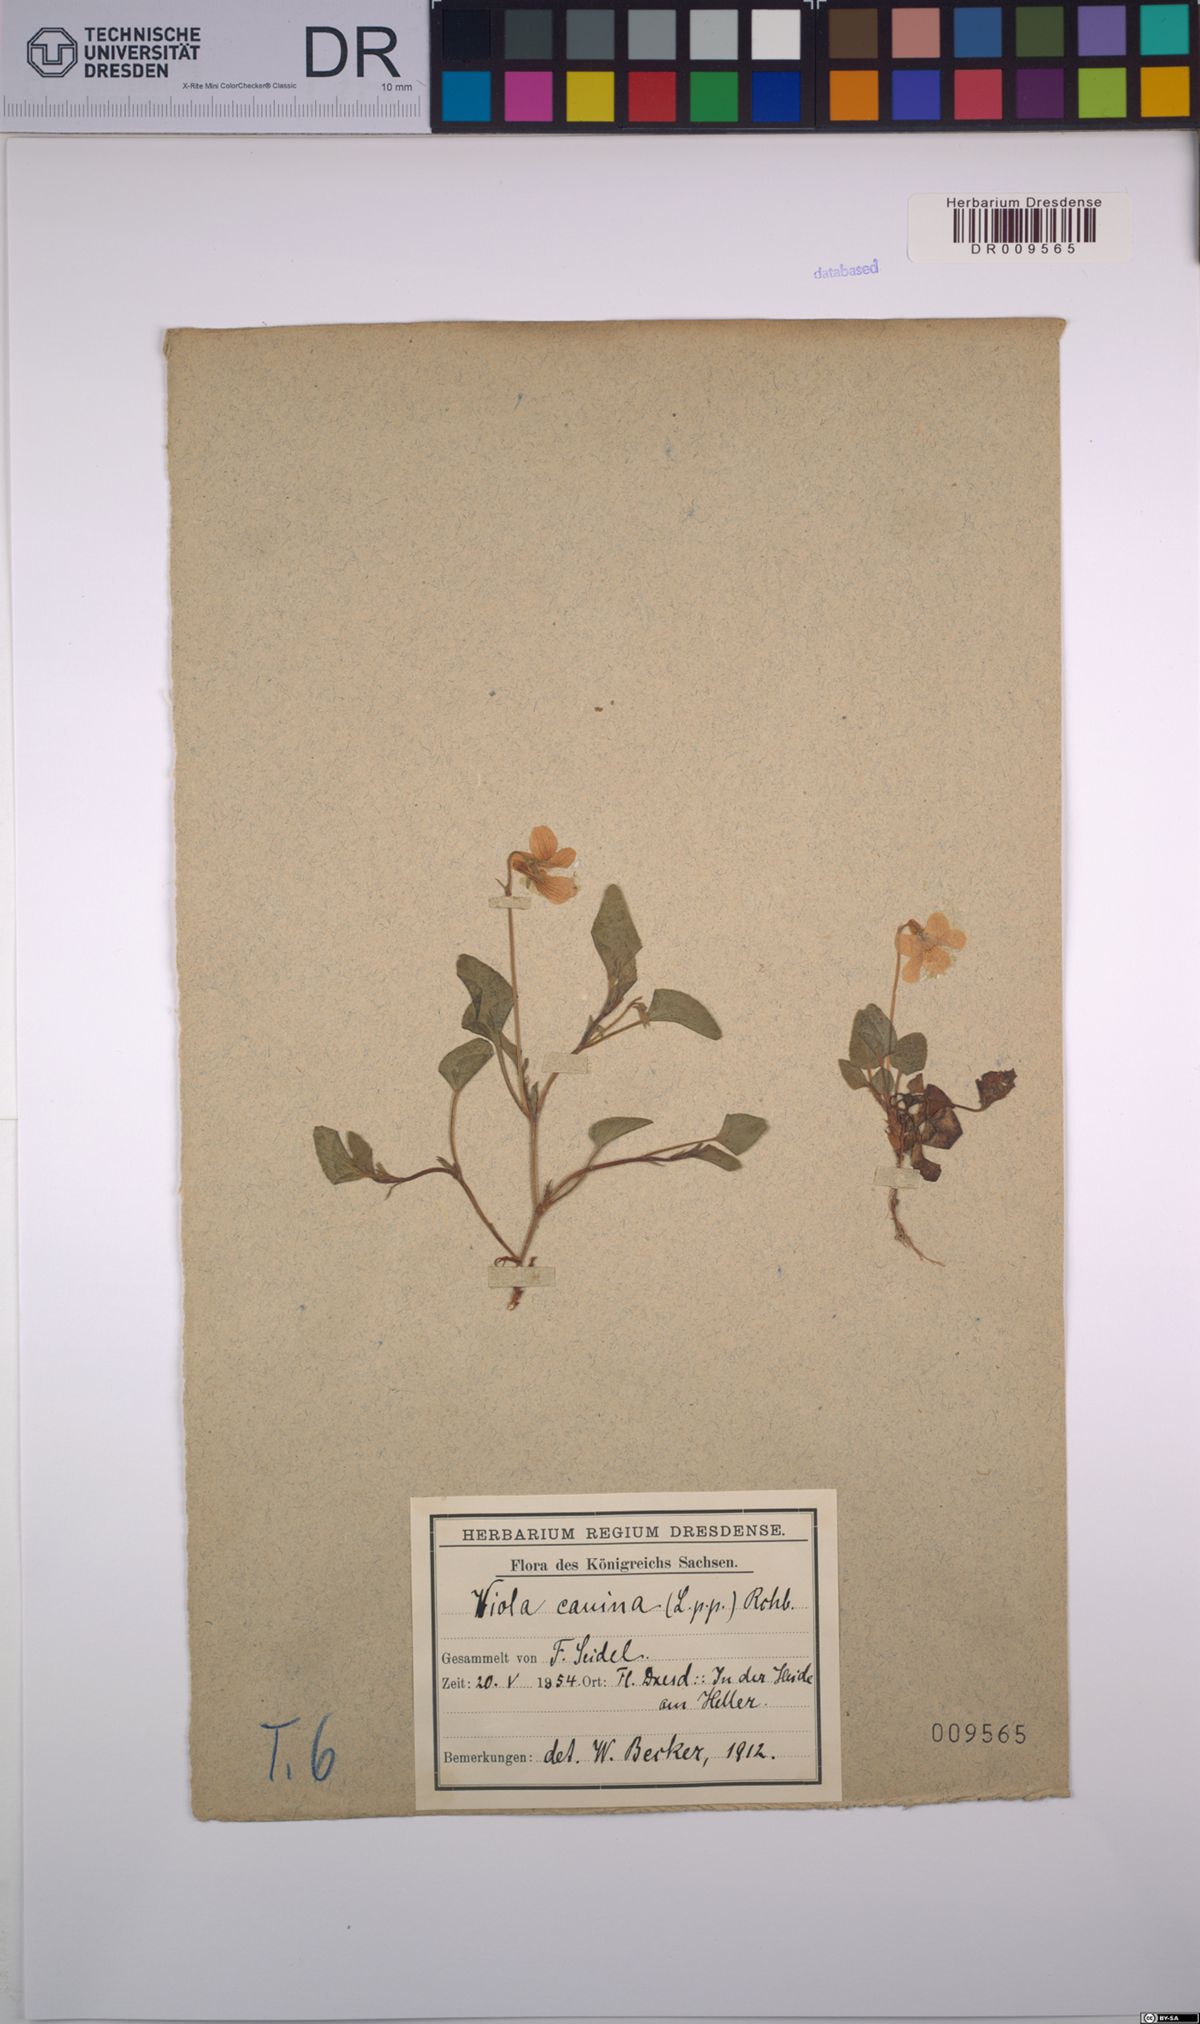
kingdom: Plantae
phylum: Tracheophyta
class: Magnoliopsida
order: Malpighiales
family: Violaceae
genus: Viola
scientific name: Viola canina
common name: Heath dog-violet
